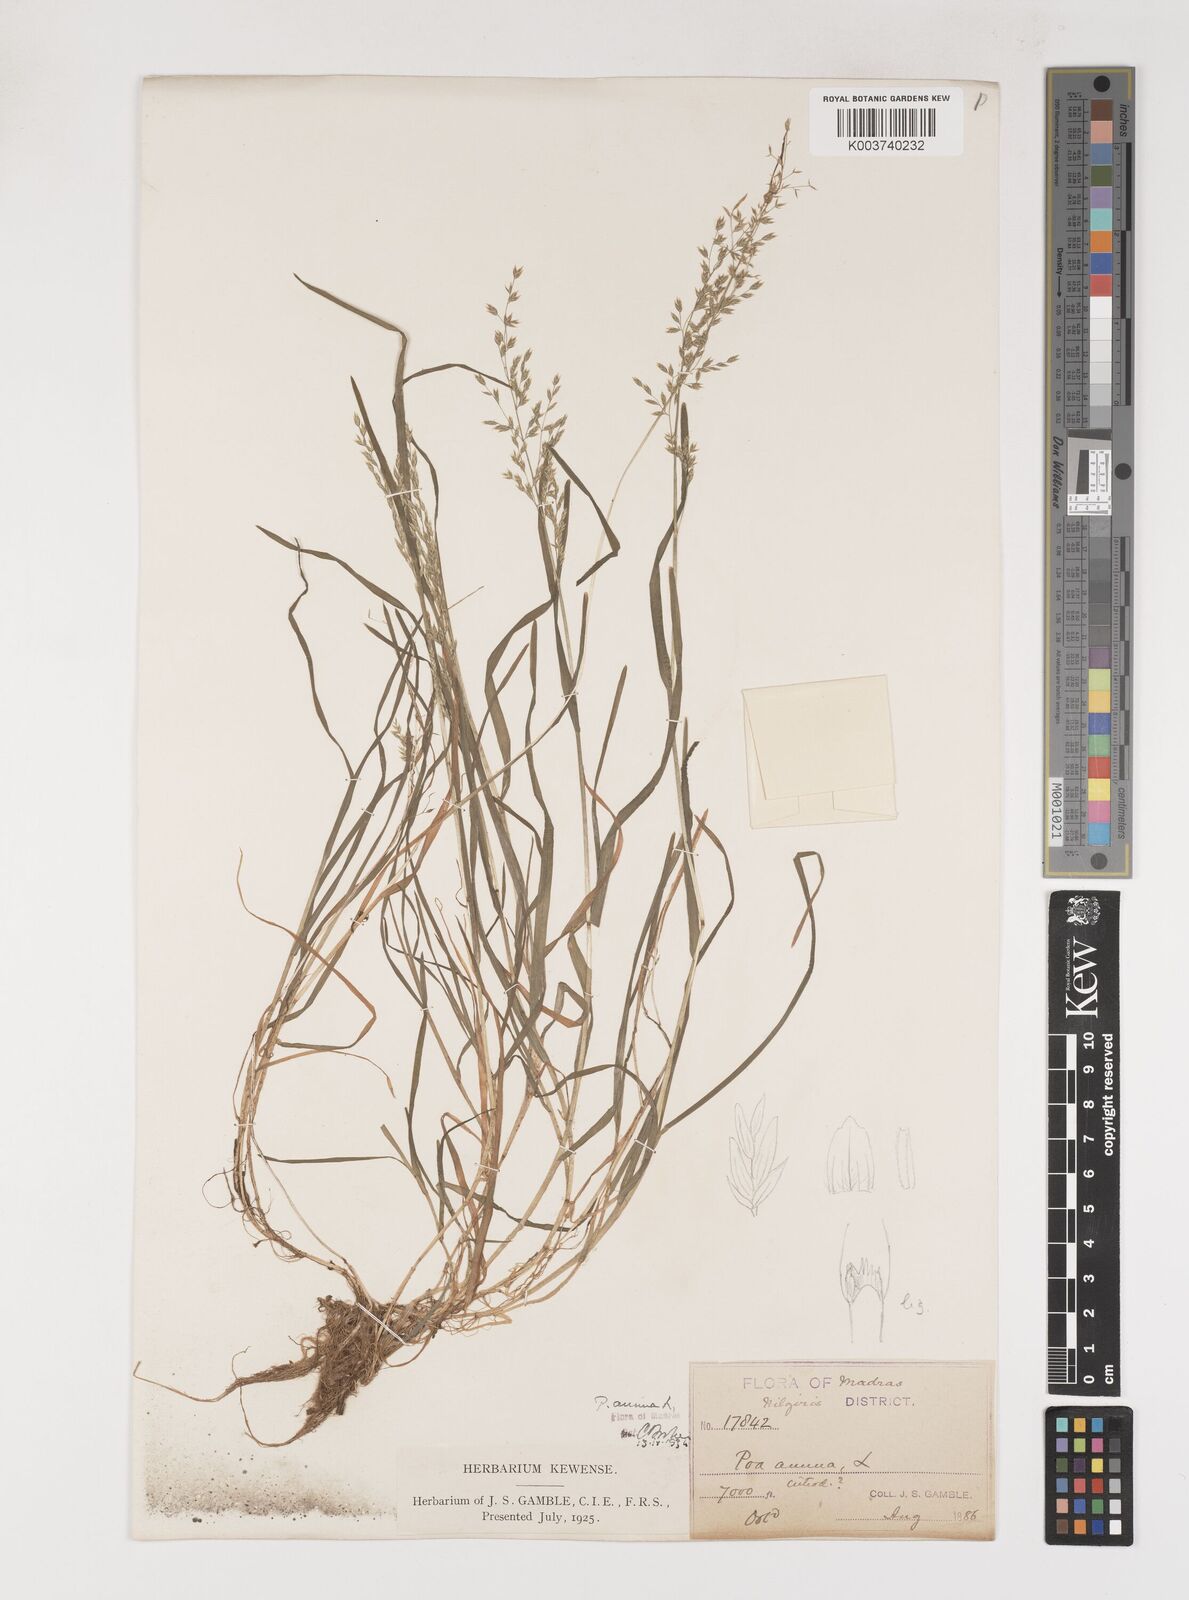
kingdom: Plantae
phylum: Tracheophyta
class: Liliopsida
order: Poales
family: Poaceae
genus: Poa
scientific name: Poa annua
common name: Annual bluegrass
